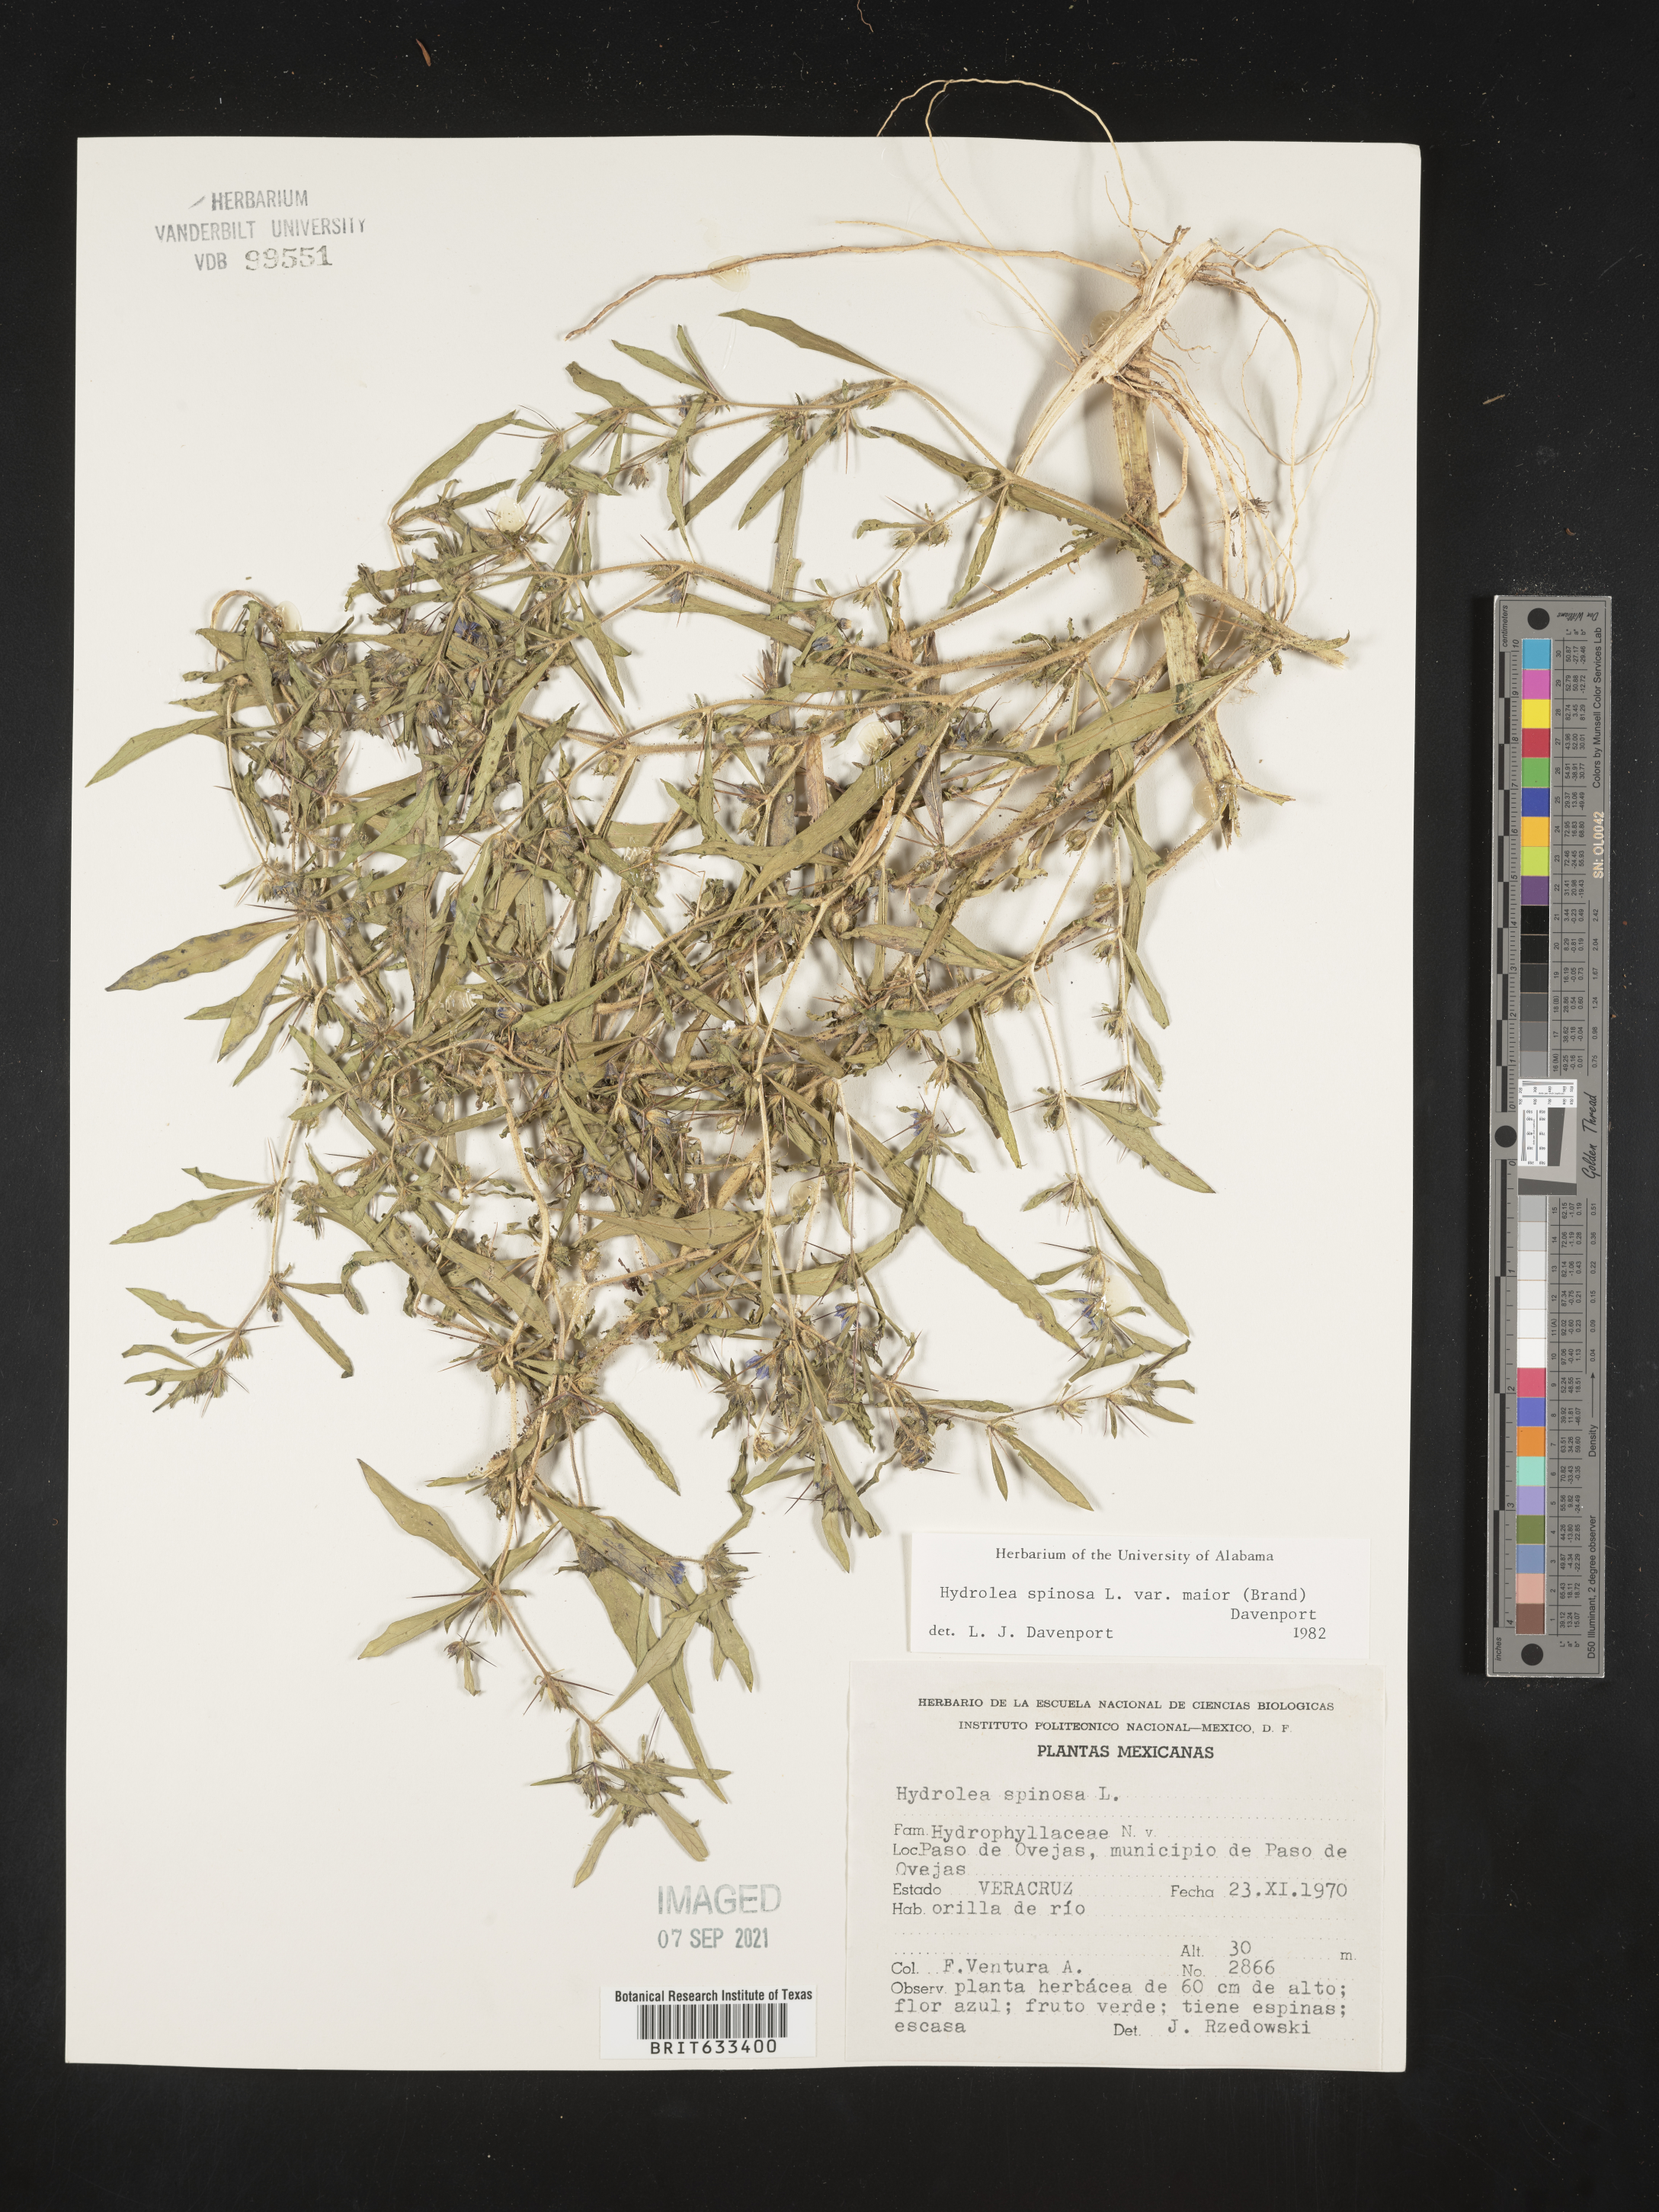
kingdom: Plantae
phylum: Tracheophyta
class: Magnoliopsida
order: Solanales
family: Hydroleaceae
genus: Hydrolea
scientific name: Hydrolea
